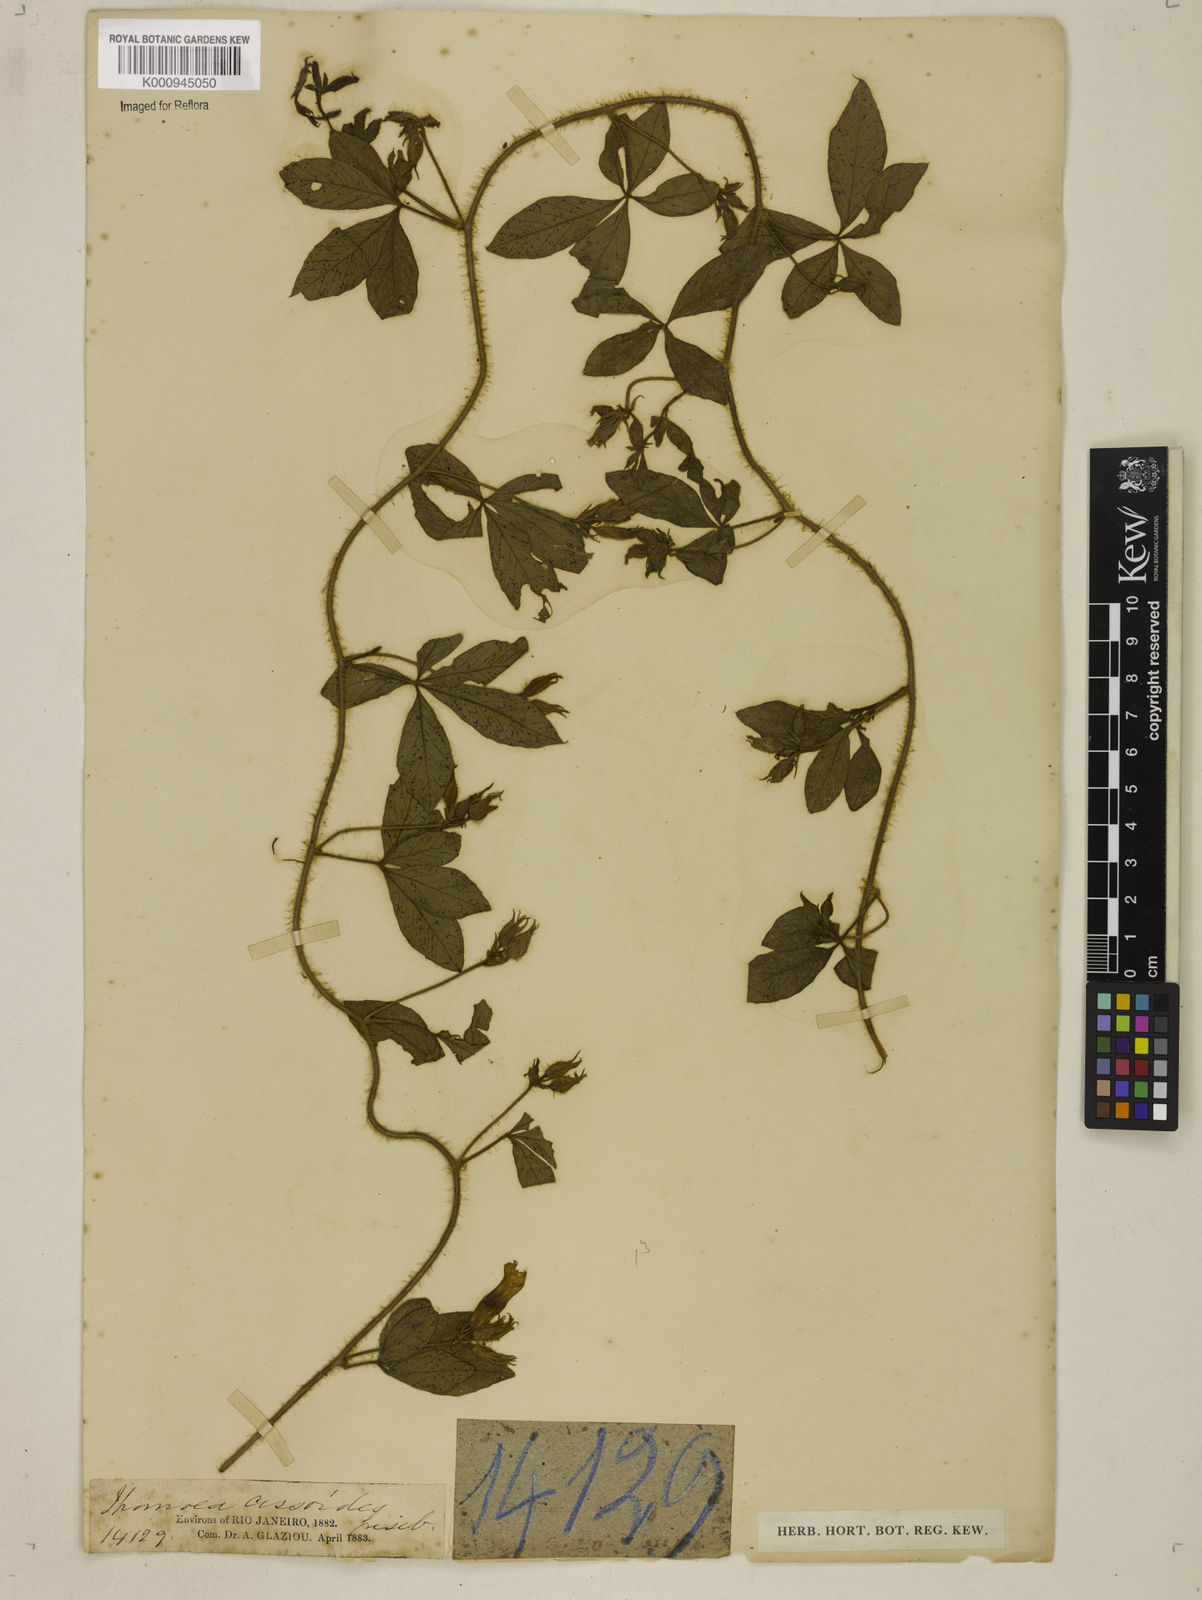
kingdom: Plantae
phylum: Tracheophyta
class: Magnoliopsida
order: Solanales
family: Convolvulaceae
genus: Distimake
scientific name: Distimake cissoides
